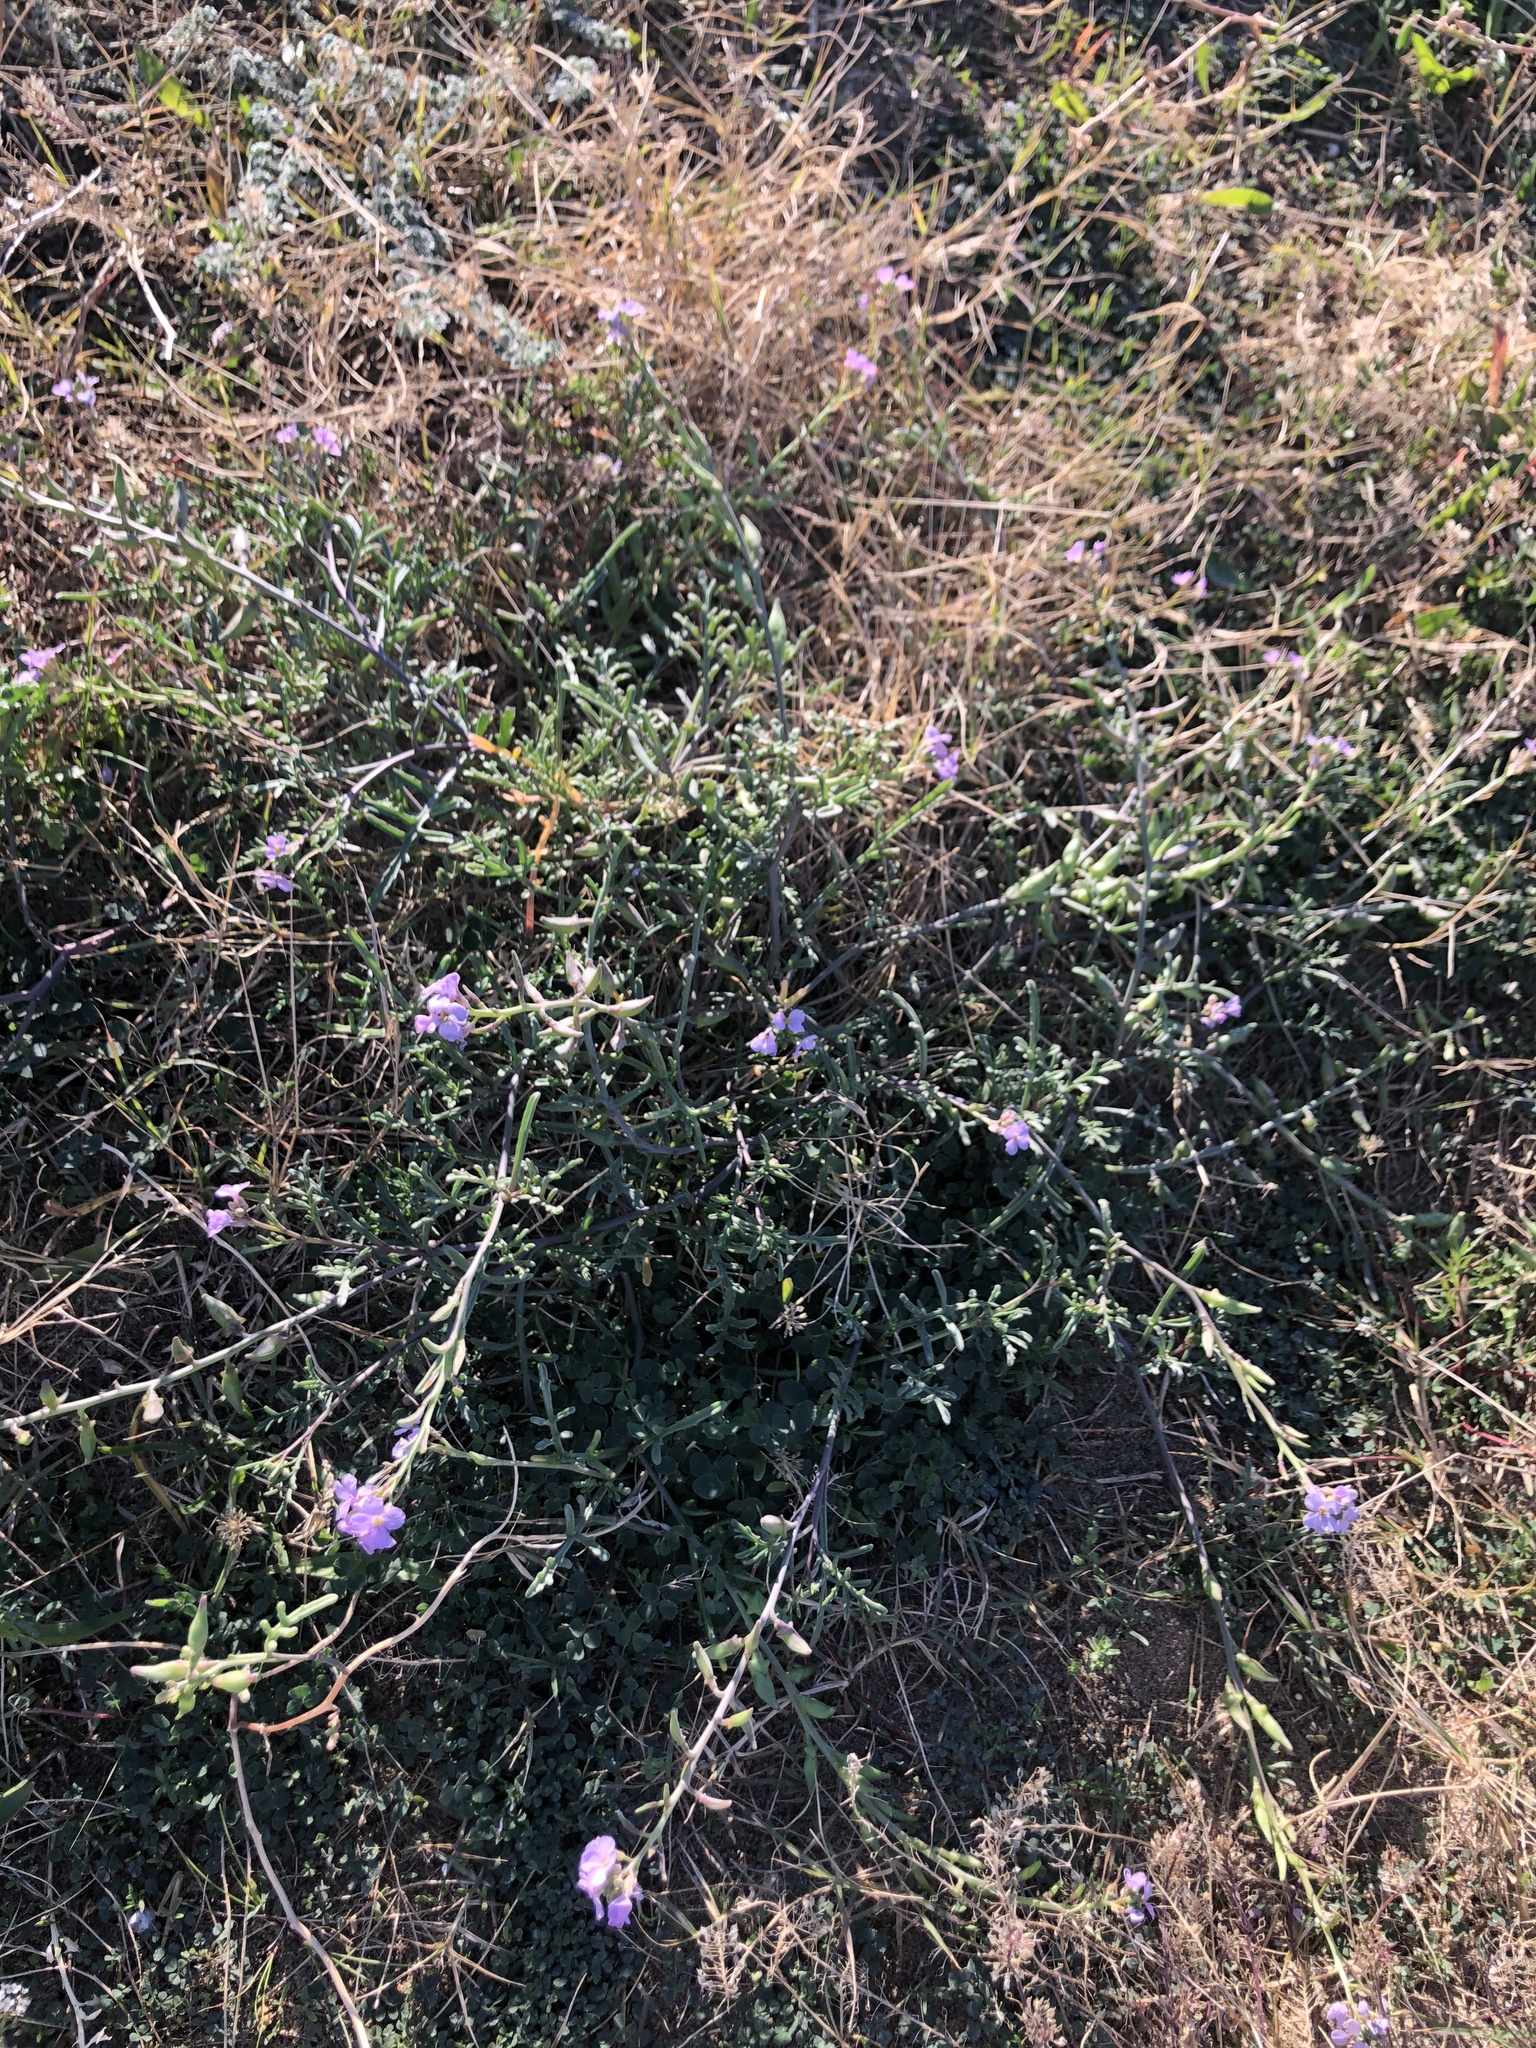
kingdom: Plantae
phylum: Tracheophyta
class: Magnoliopsida
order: Brassicales
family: Brassicaceae
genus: Cakile
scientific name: Cakile maritima
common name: Sea rocket
